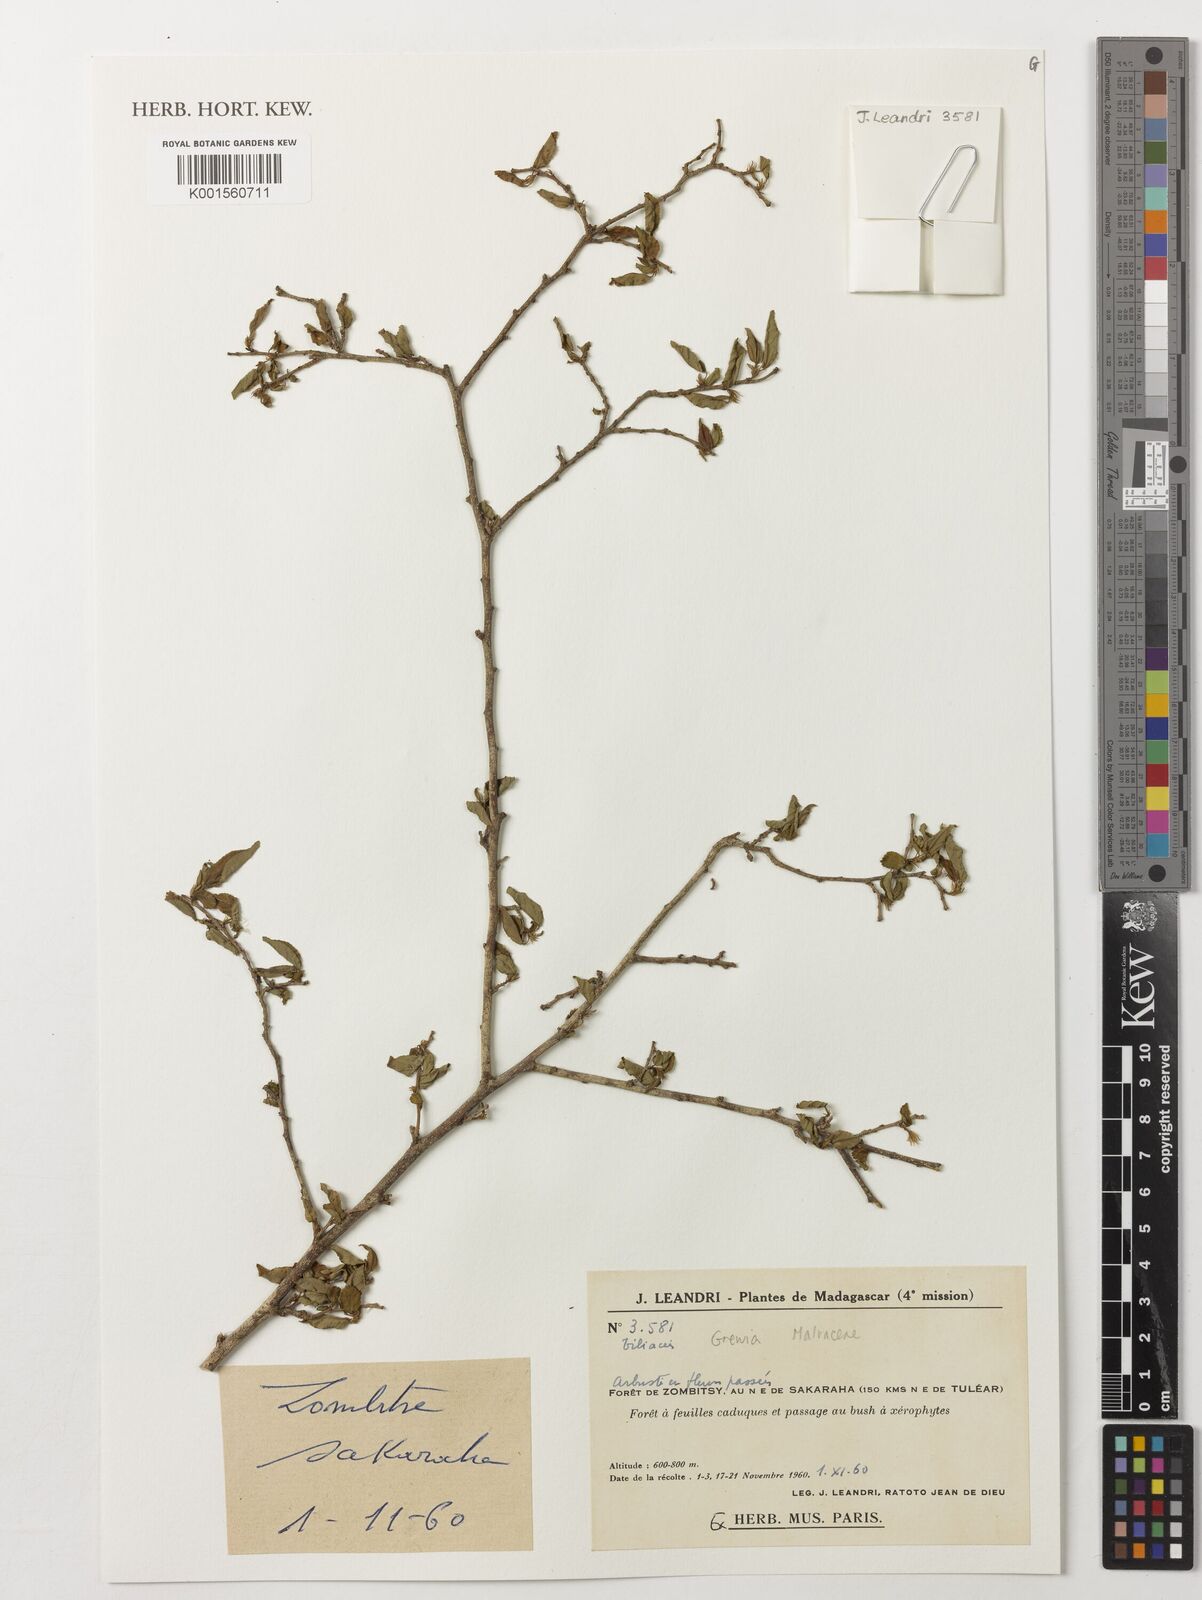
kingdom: Plantae
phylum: Tracheophyta
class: Magnoliopsida
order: Malvales
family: Malvaceae
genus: Grewia
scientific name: Grewia
